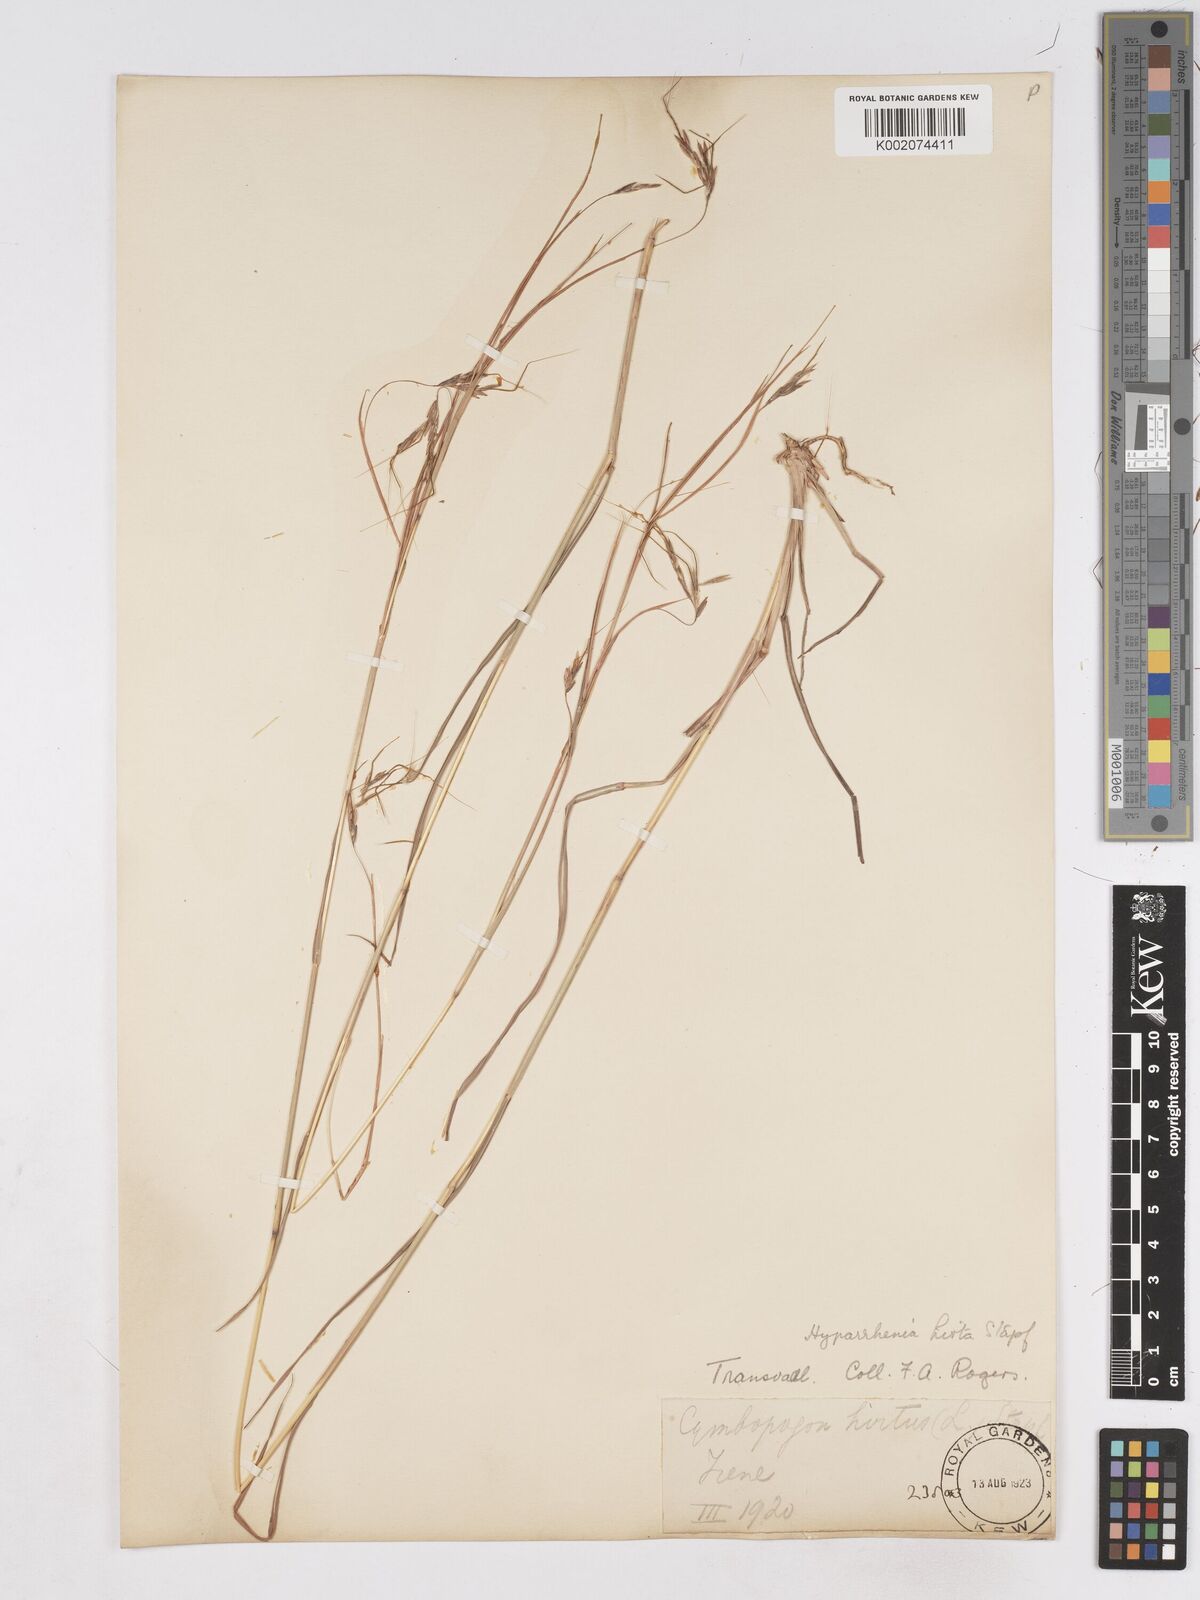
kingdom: Plantae
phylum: Tracheophyta
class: Liliopsida
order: Poales
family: Poaceae
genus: Hyparrhenia
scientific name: Hyparrhenia hirta
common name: Thatching grass
